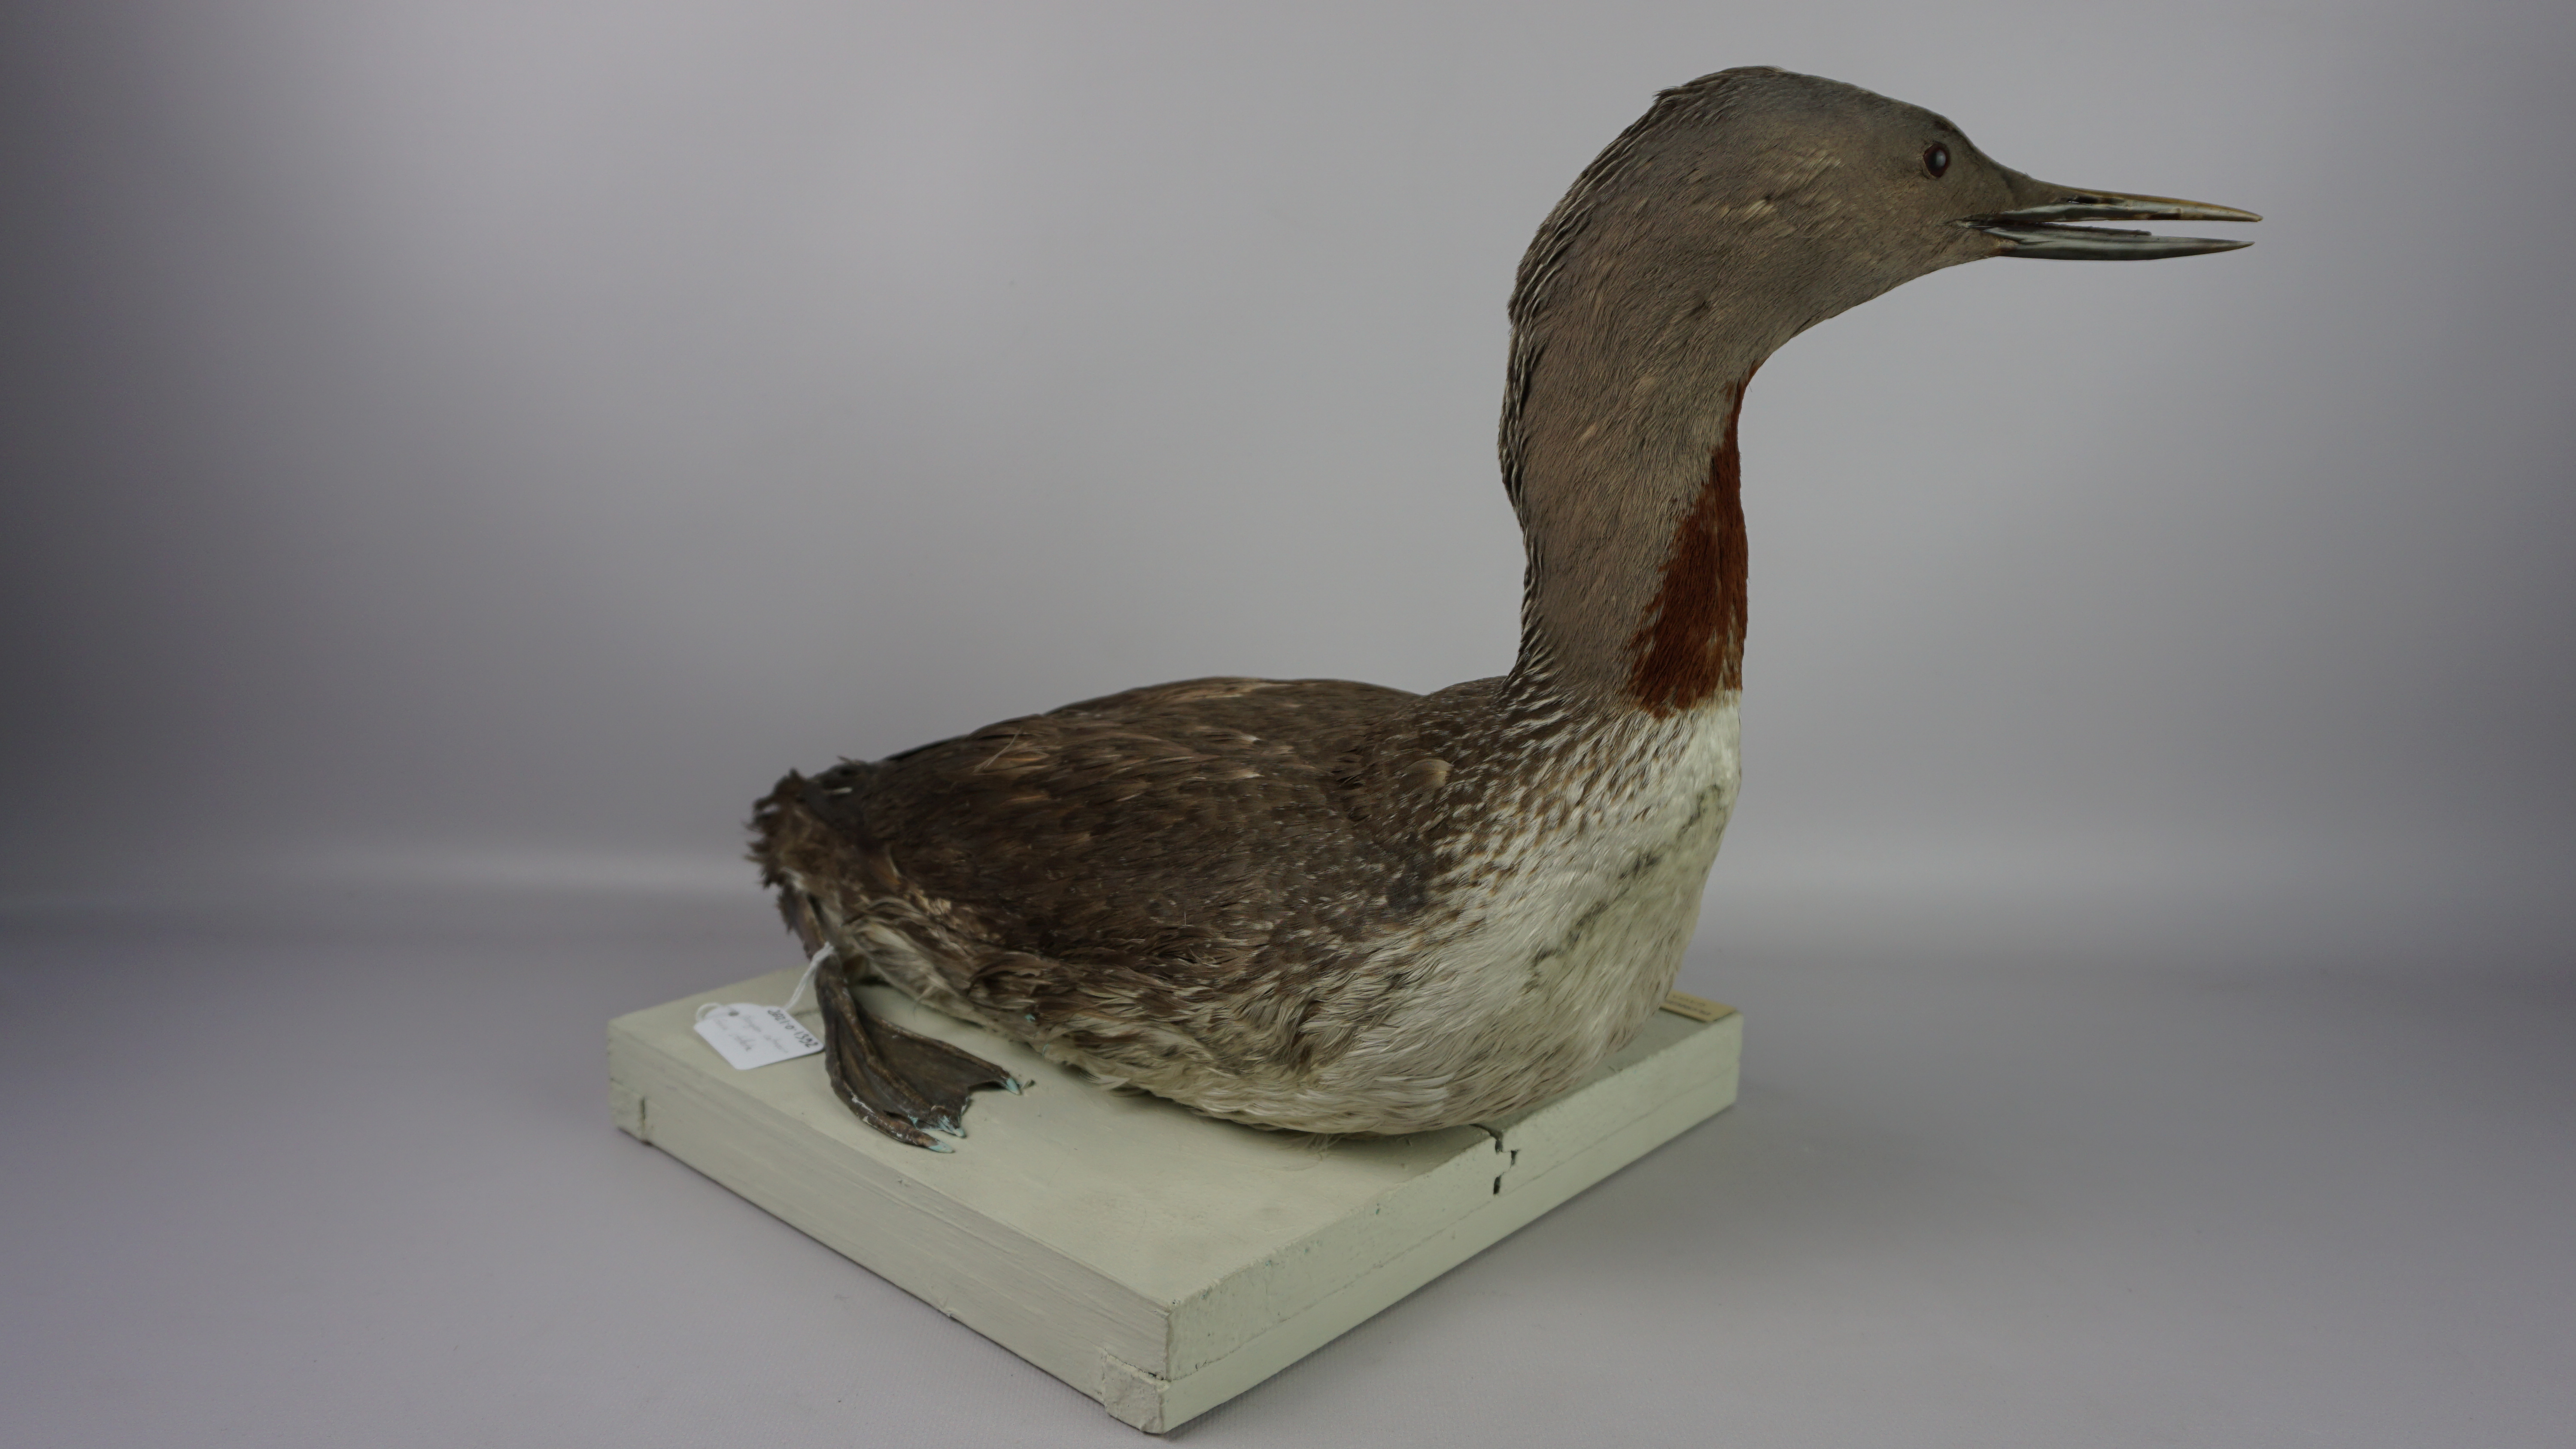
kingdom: Animalia
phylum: Chordata
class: Aves
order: Gaviiformes
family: Gaviidae
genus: Gavia
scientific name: Gavia stellata
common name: Red-throated loon
